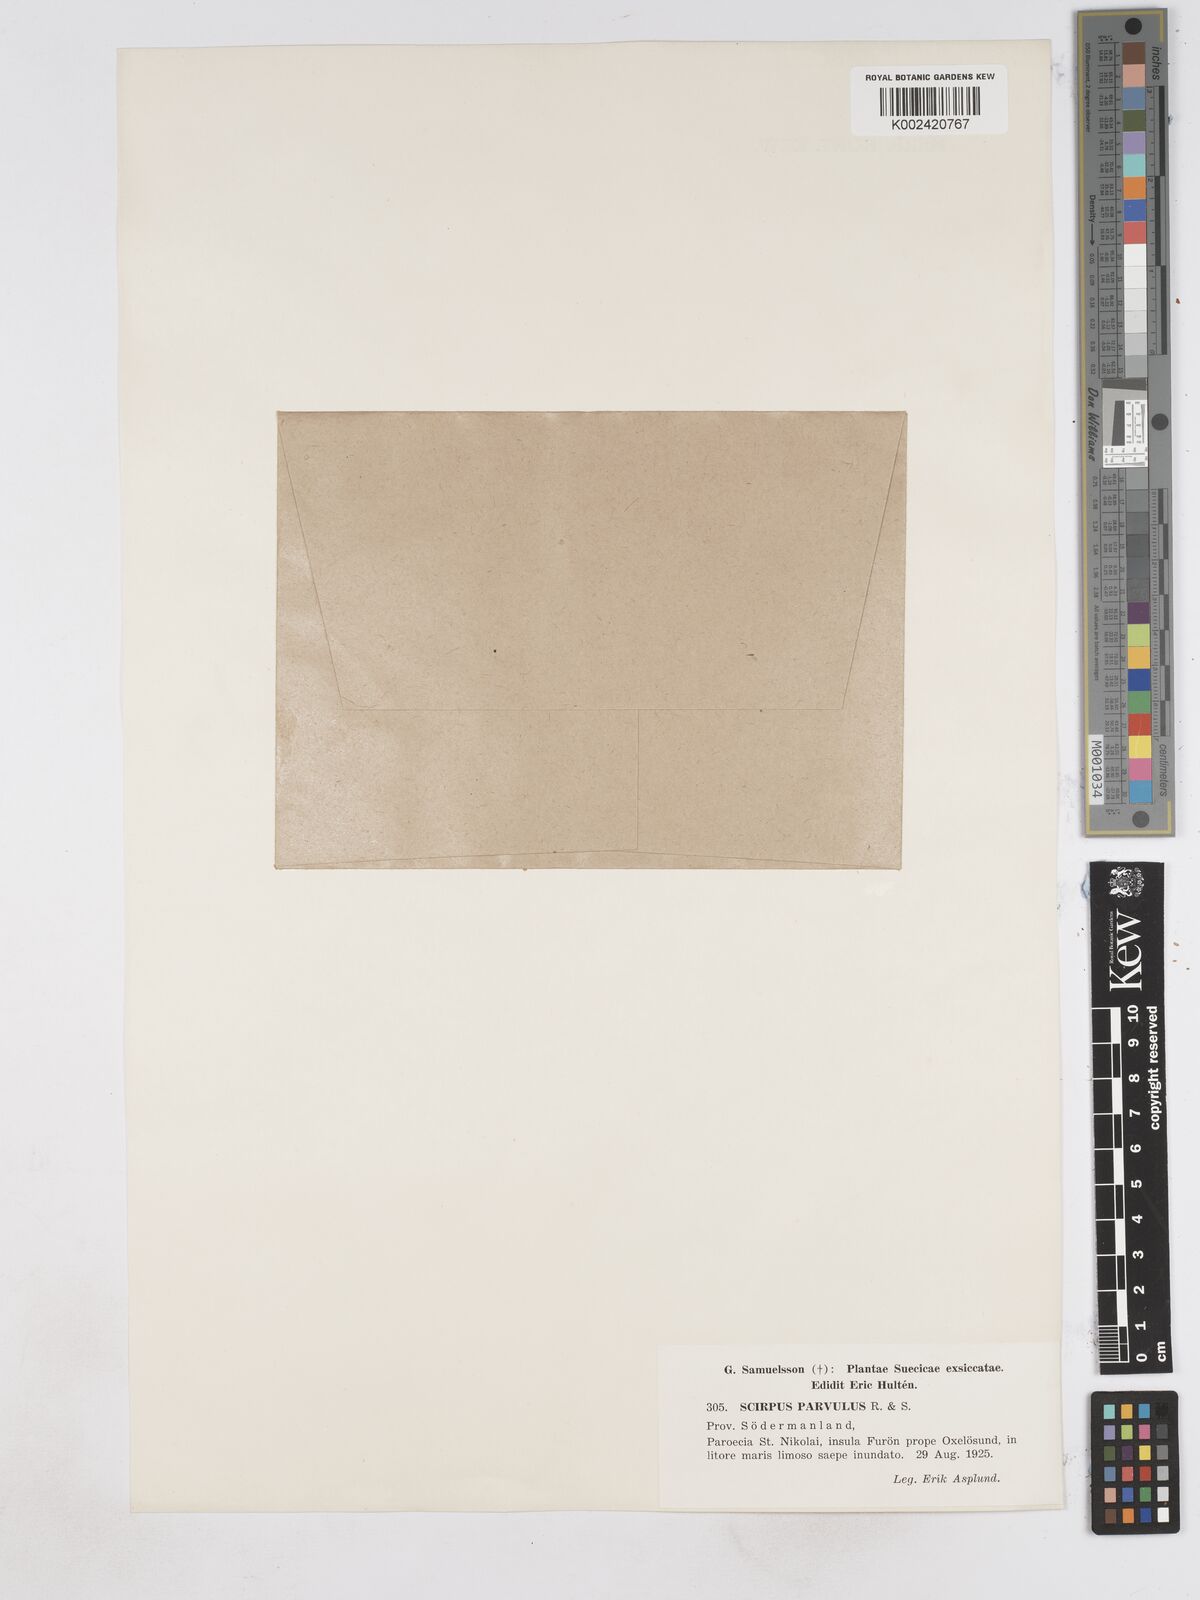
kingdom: Plantae
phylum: Tracheophyta
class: Liliopsida
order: Poales
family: Cyperaceae
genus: Eleocharis
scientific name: Eleocharis parvula
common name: Dwarf spike-rush
